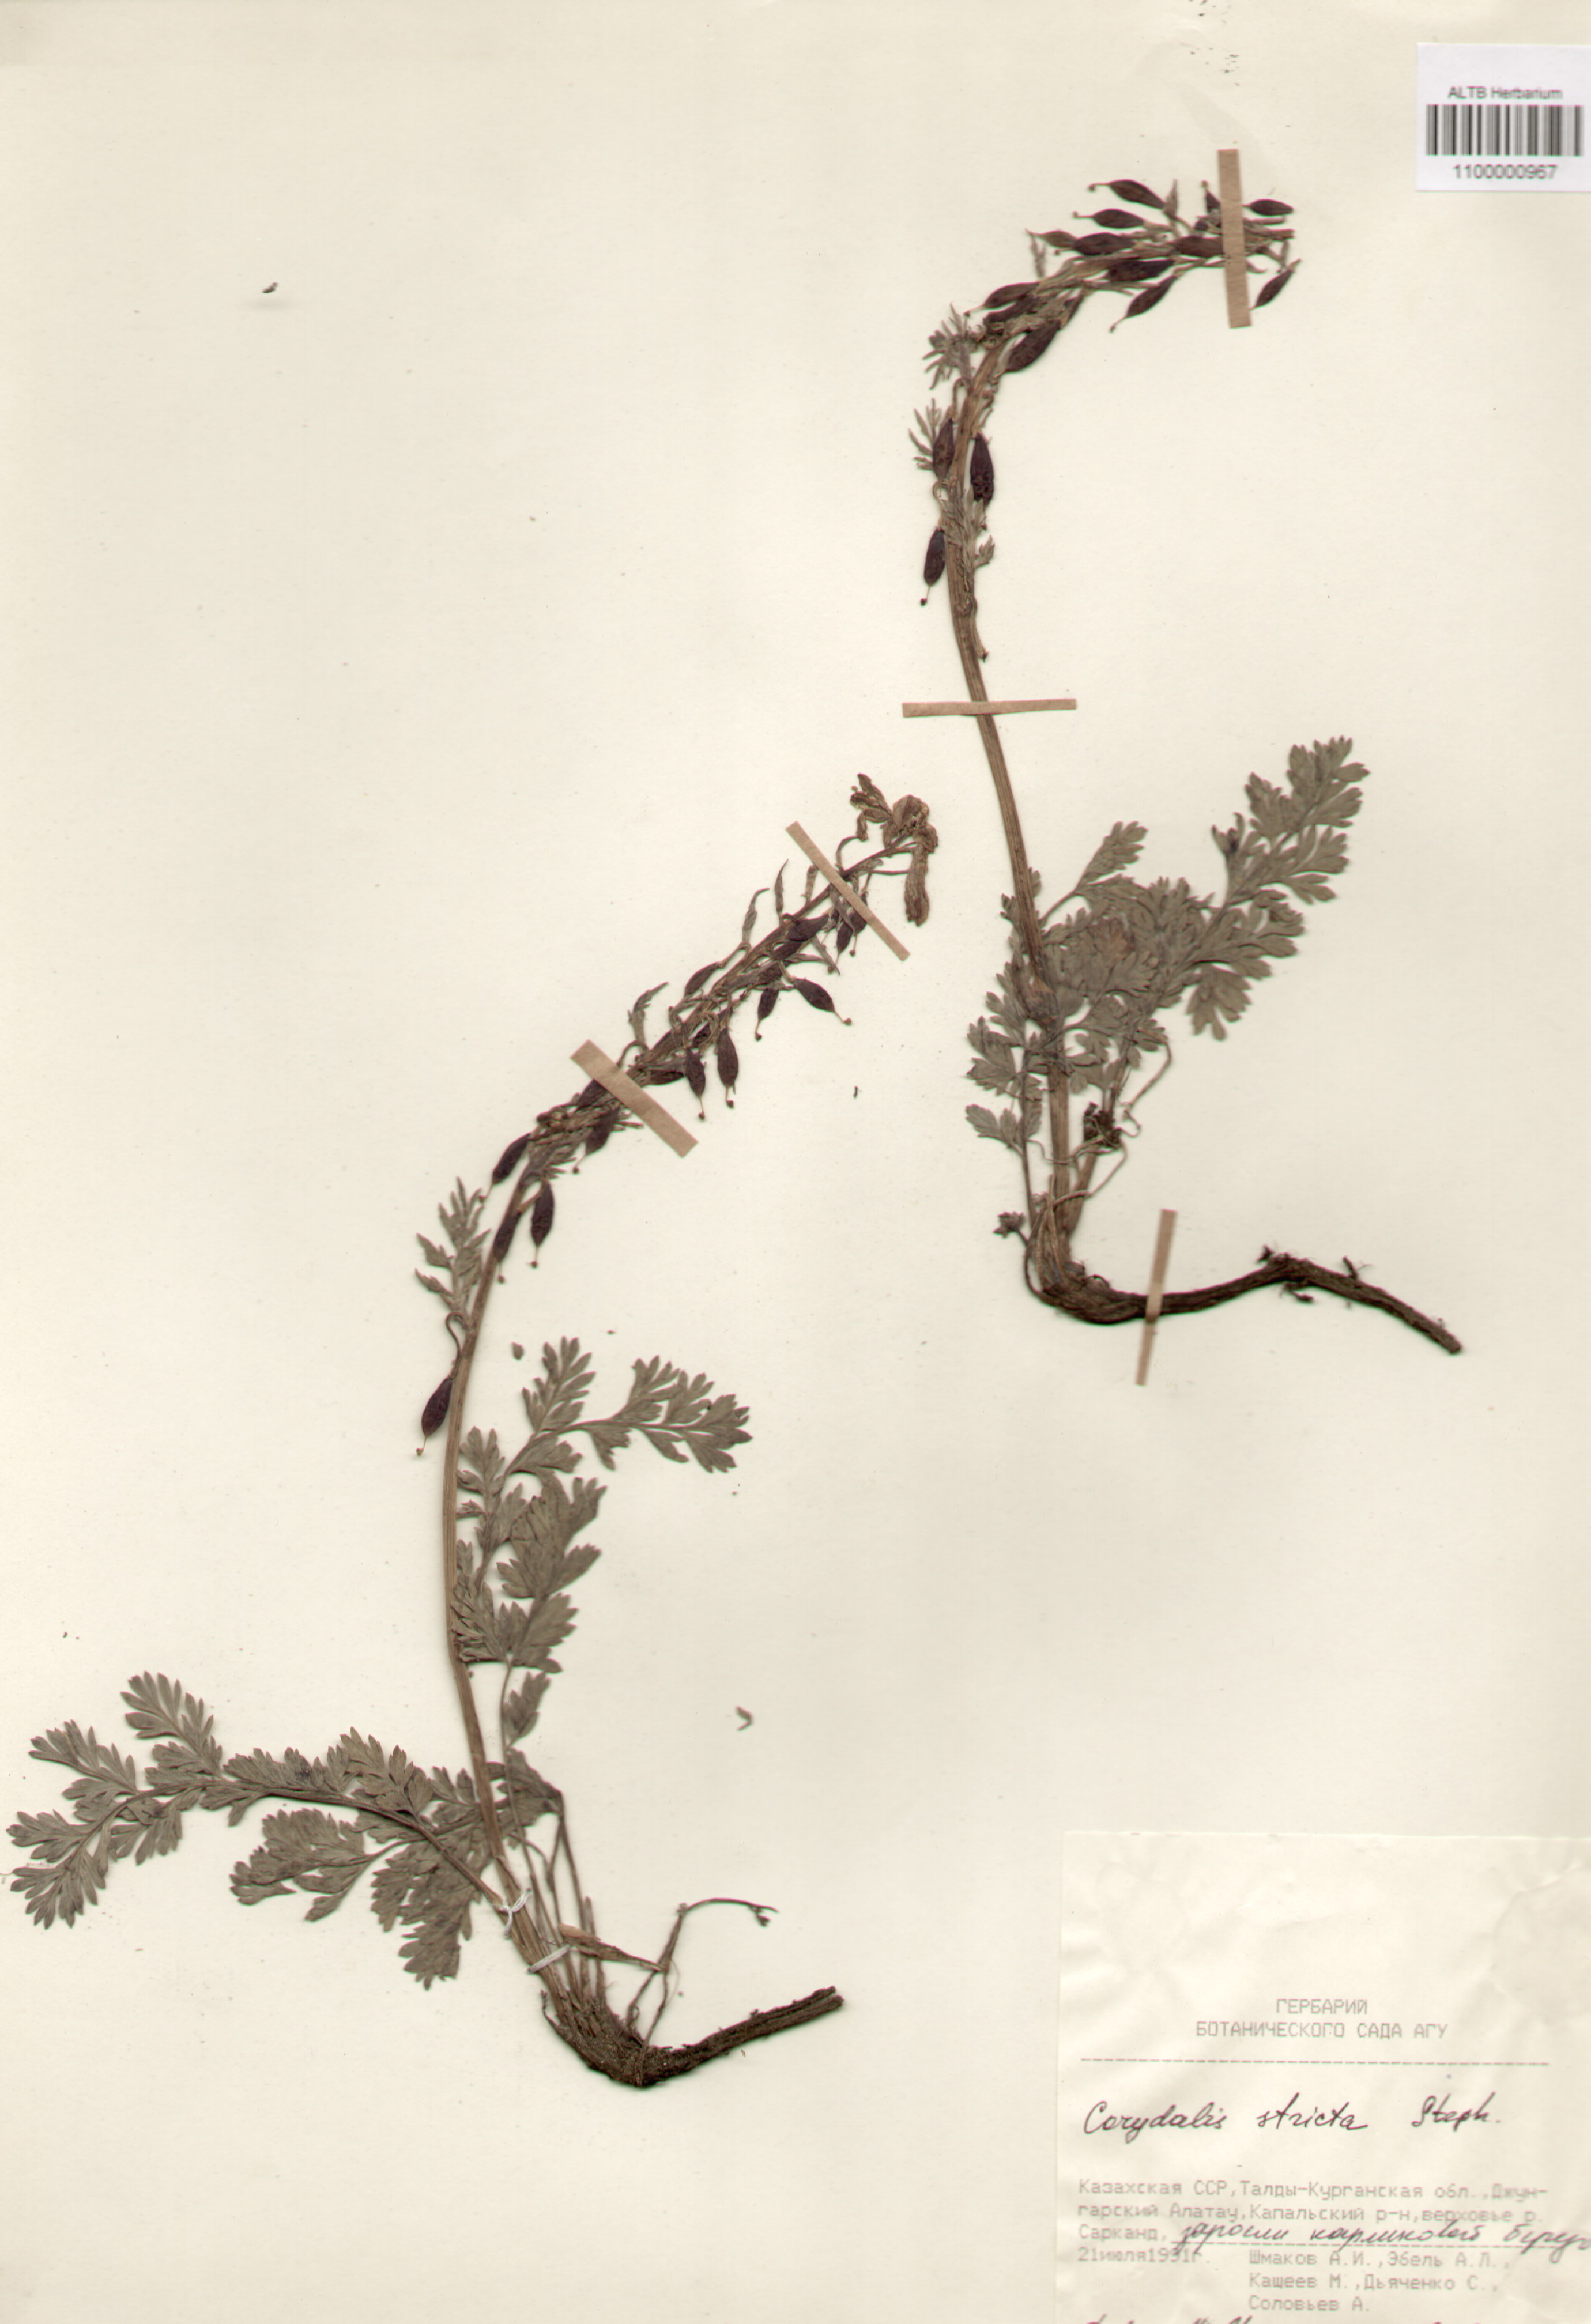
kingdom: Plantae
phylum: Tracheophyta
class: Magnoliopsida
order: Ranunculales
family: Papaveraceae
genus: Corydalis
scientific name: Corydalis stricta
